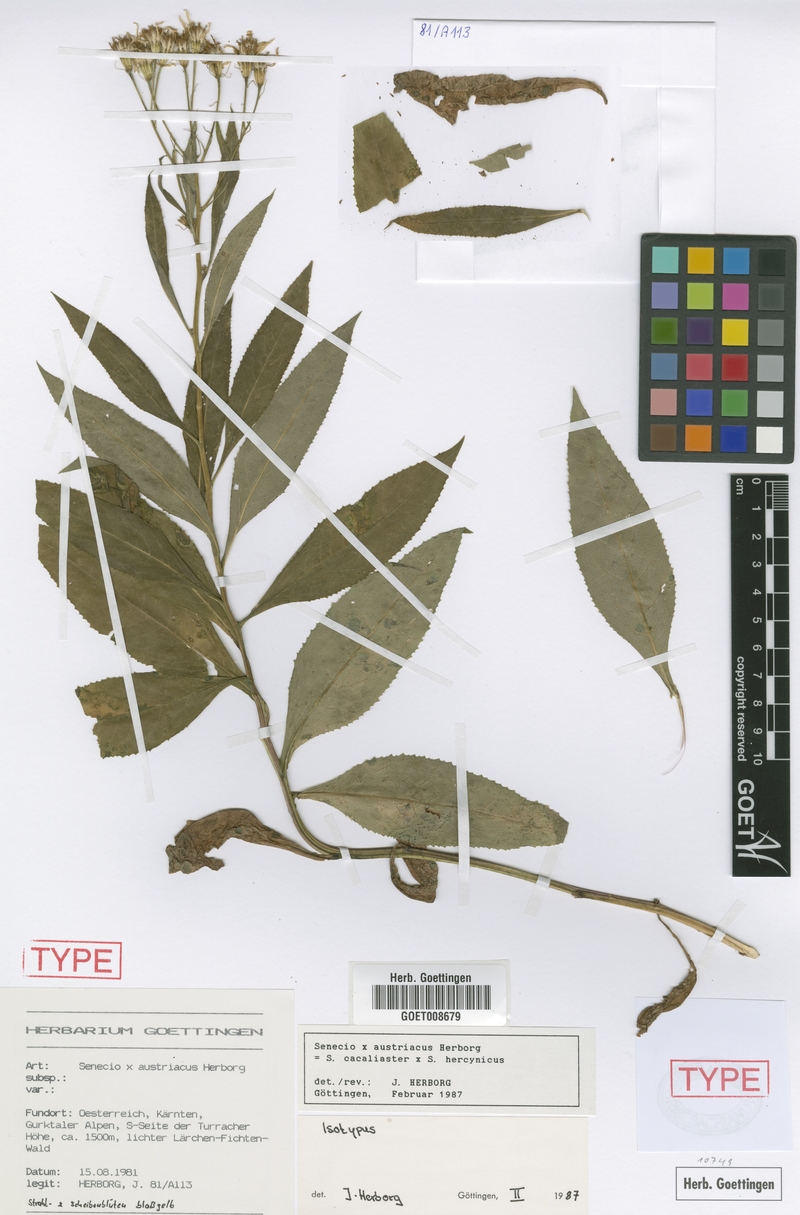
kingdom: Plantae
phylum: Tracheophyta
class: Magnoliopsida
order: Asterales
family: Asteraceae
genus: Senecio
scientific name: Senecio austriacus
